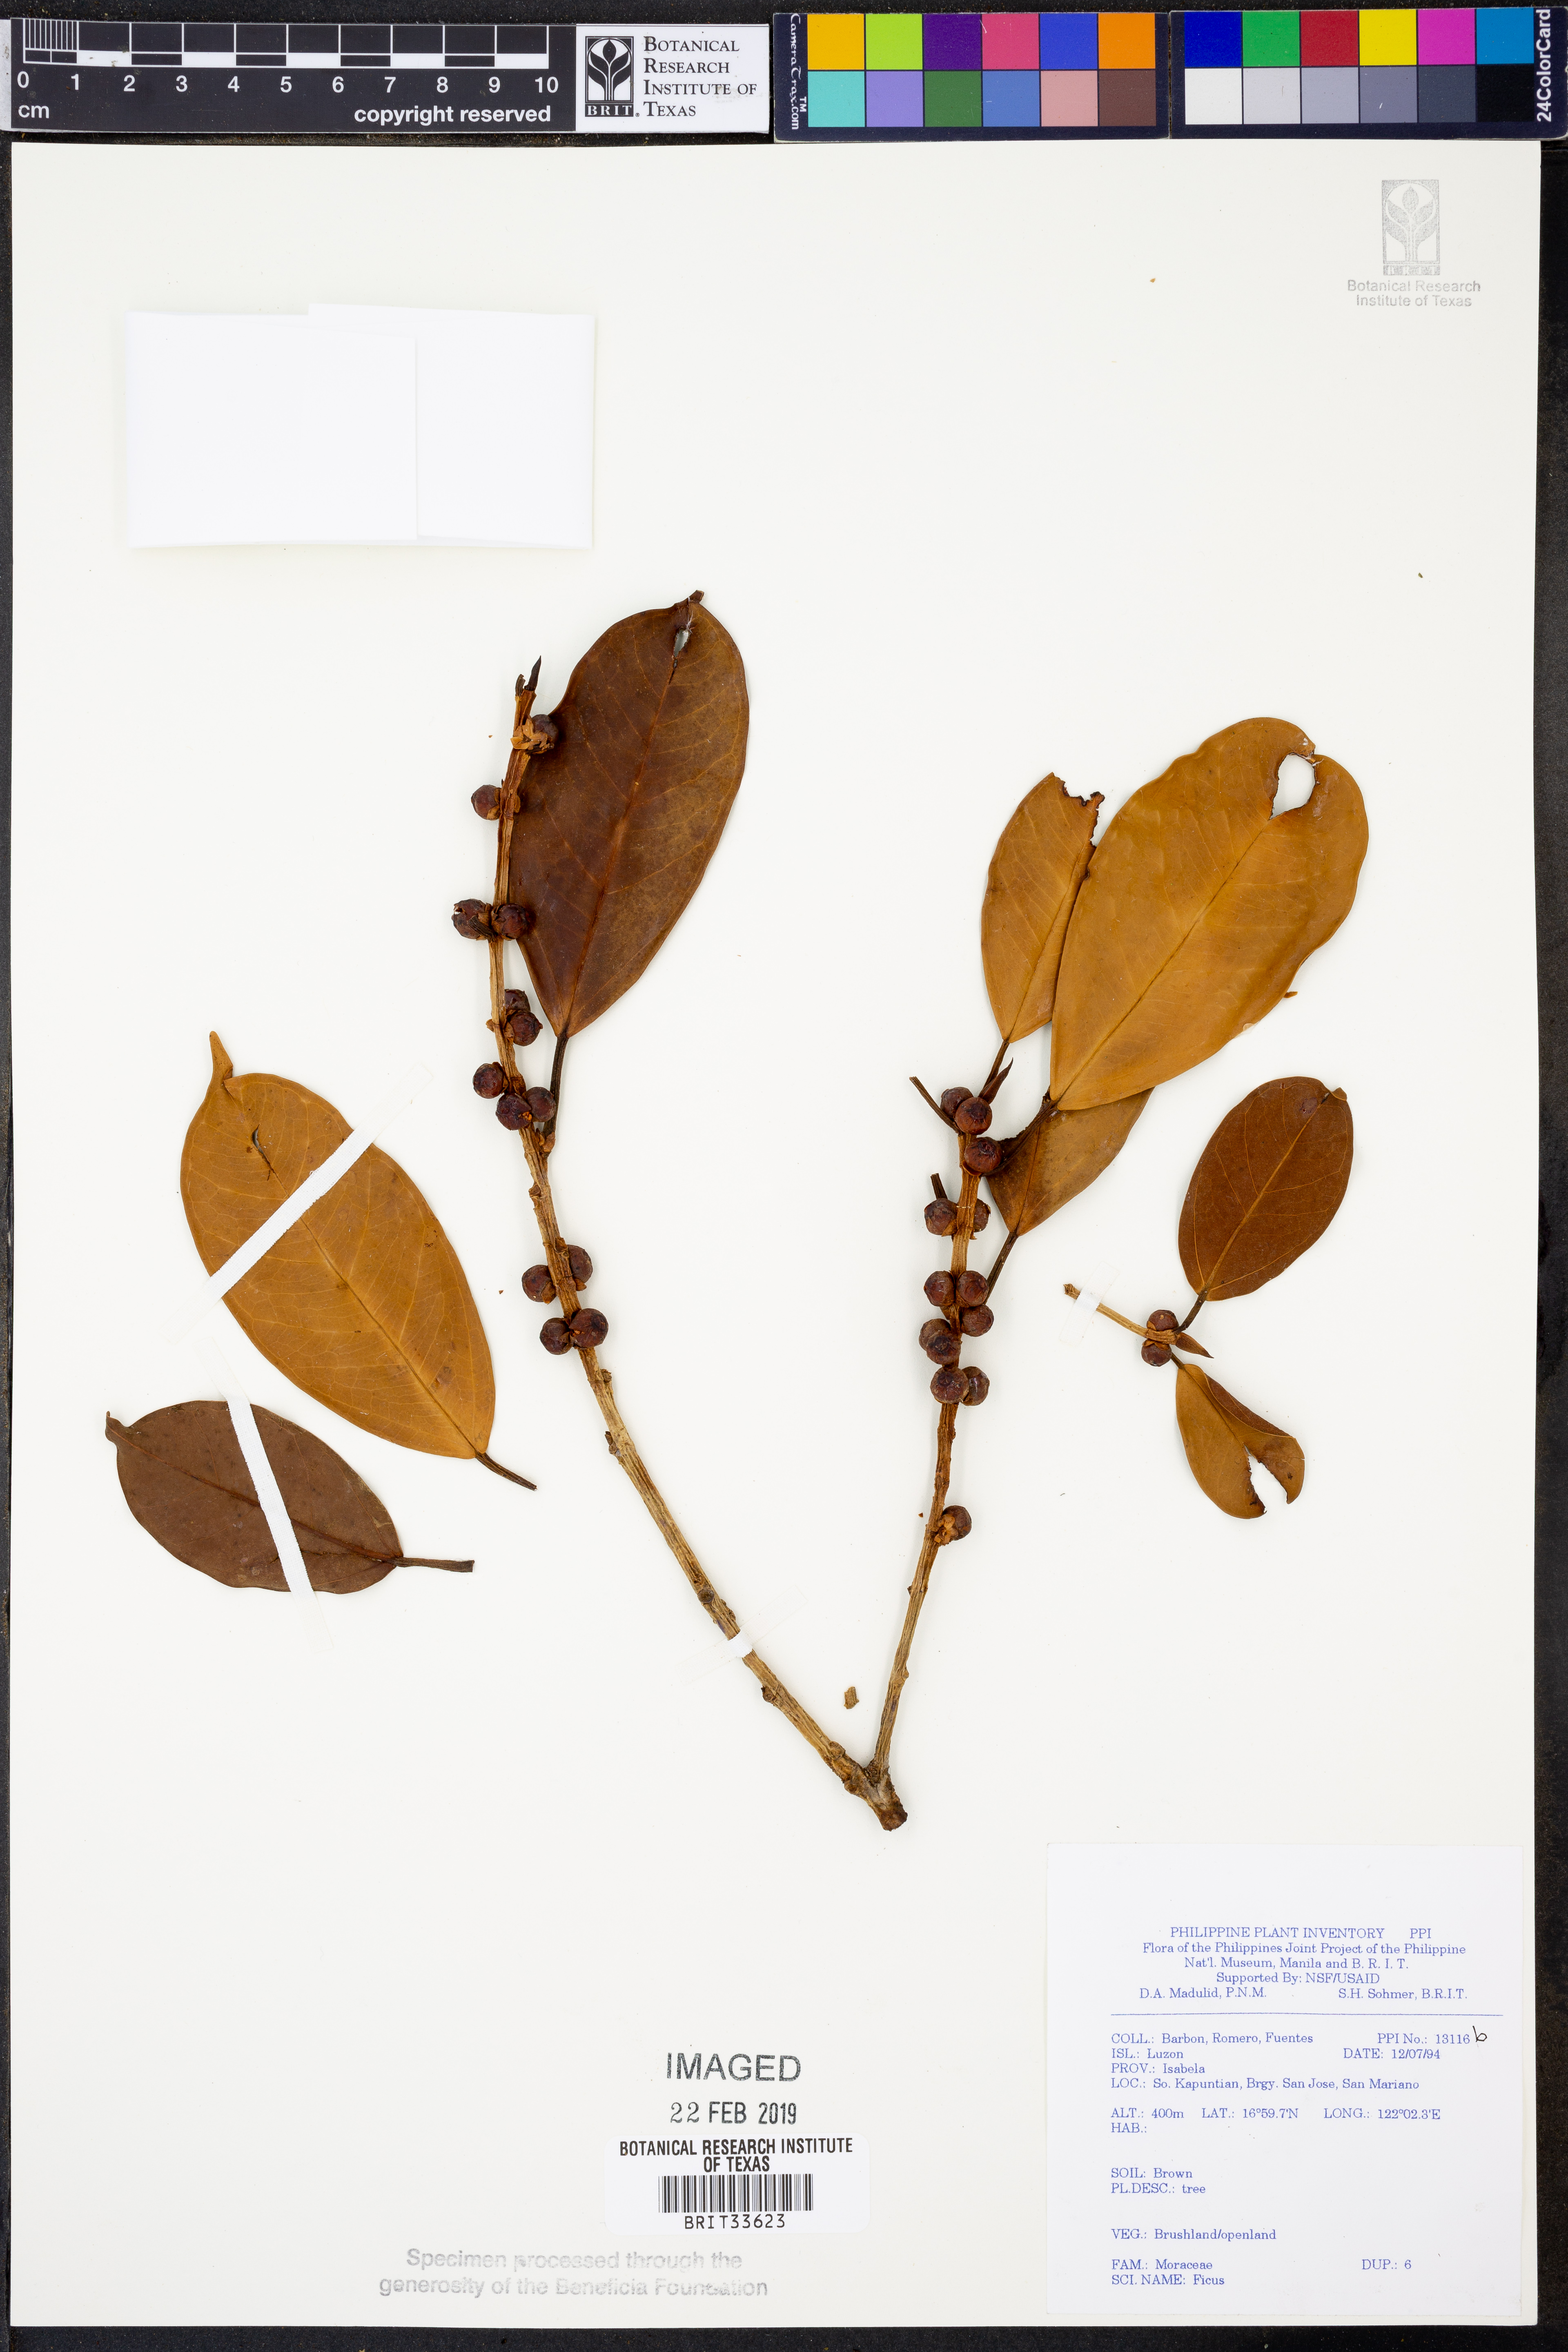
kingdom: Plantae
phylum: Tracheophyta
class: Magnoliopsida
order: Rosales
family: Moraceae
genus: Ficus
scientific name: Ficus
